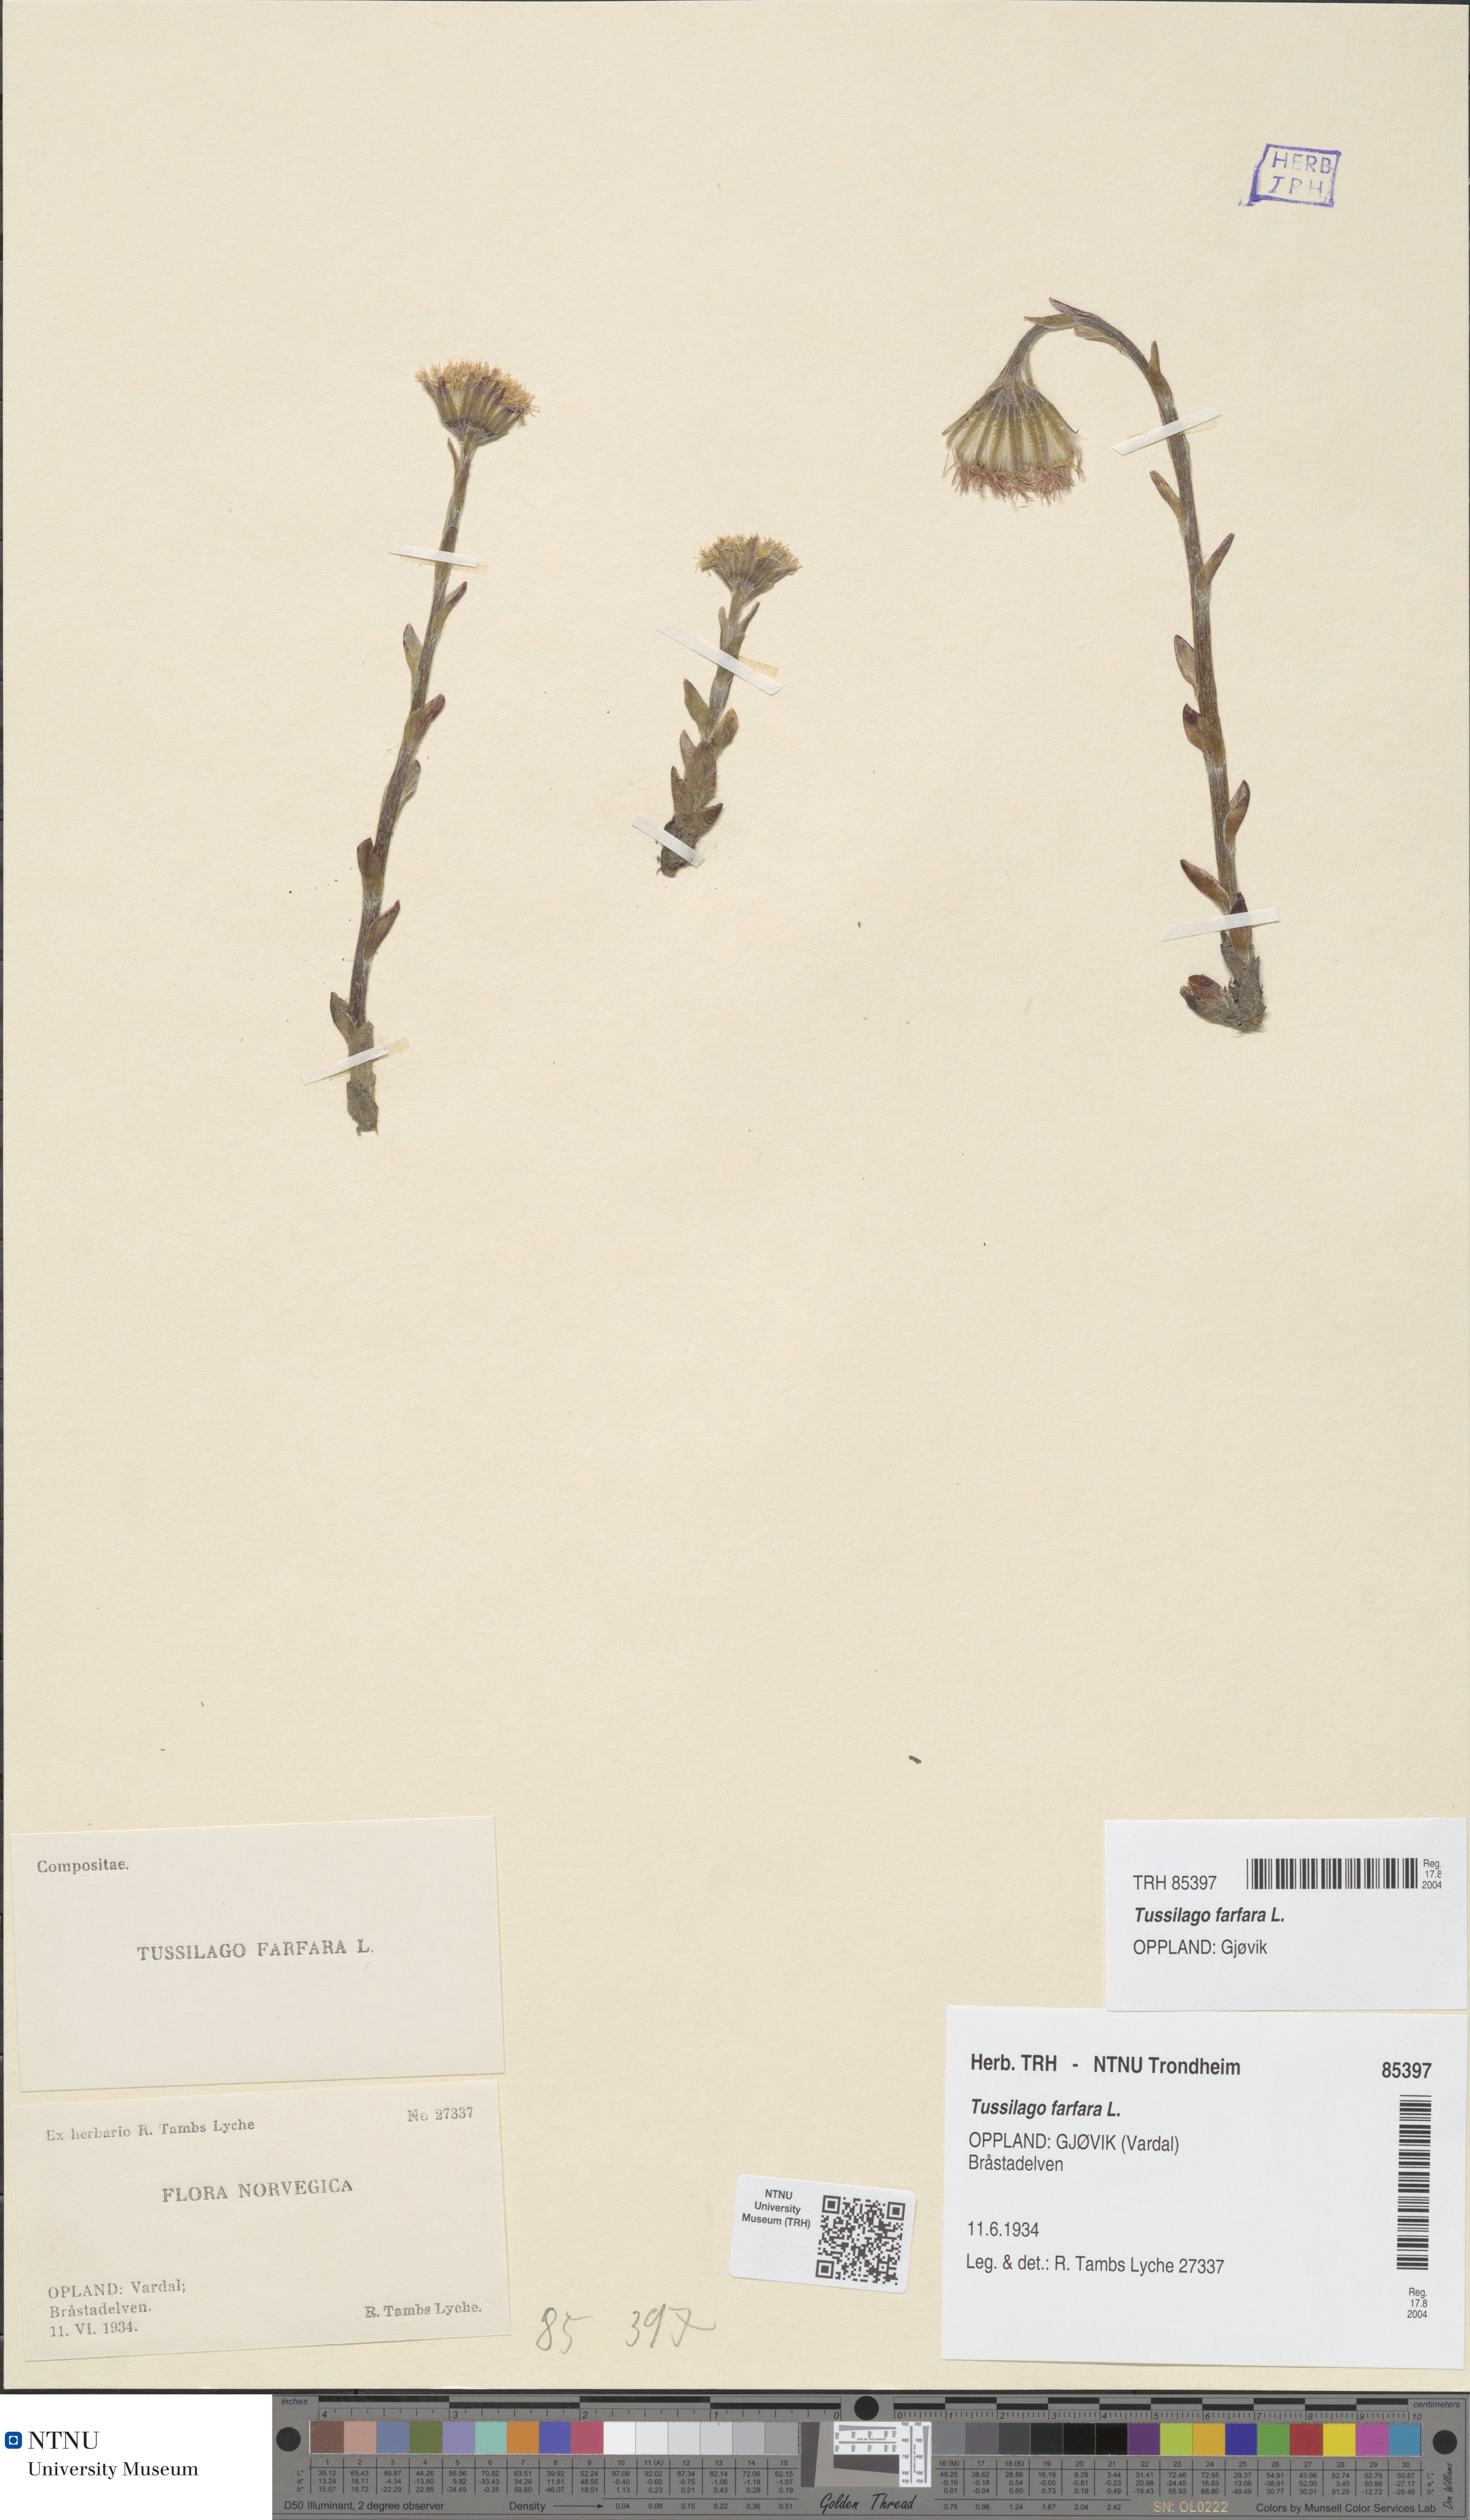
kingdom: Plantae
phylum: Tracheophyta
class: Magnoliopsida
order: Asterales
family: Asteraceae
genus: Tussilago
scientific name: Tussilago farfara
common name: Coltsfoot
